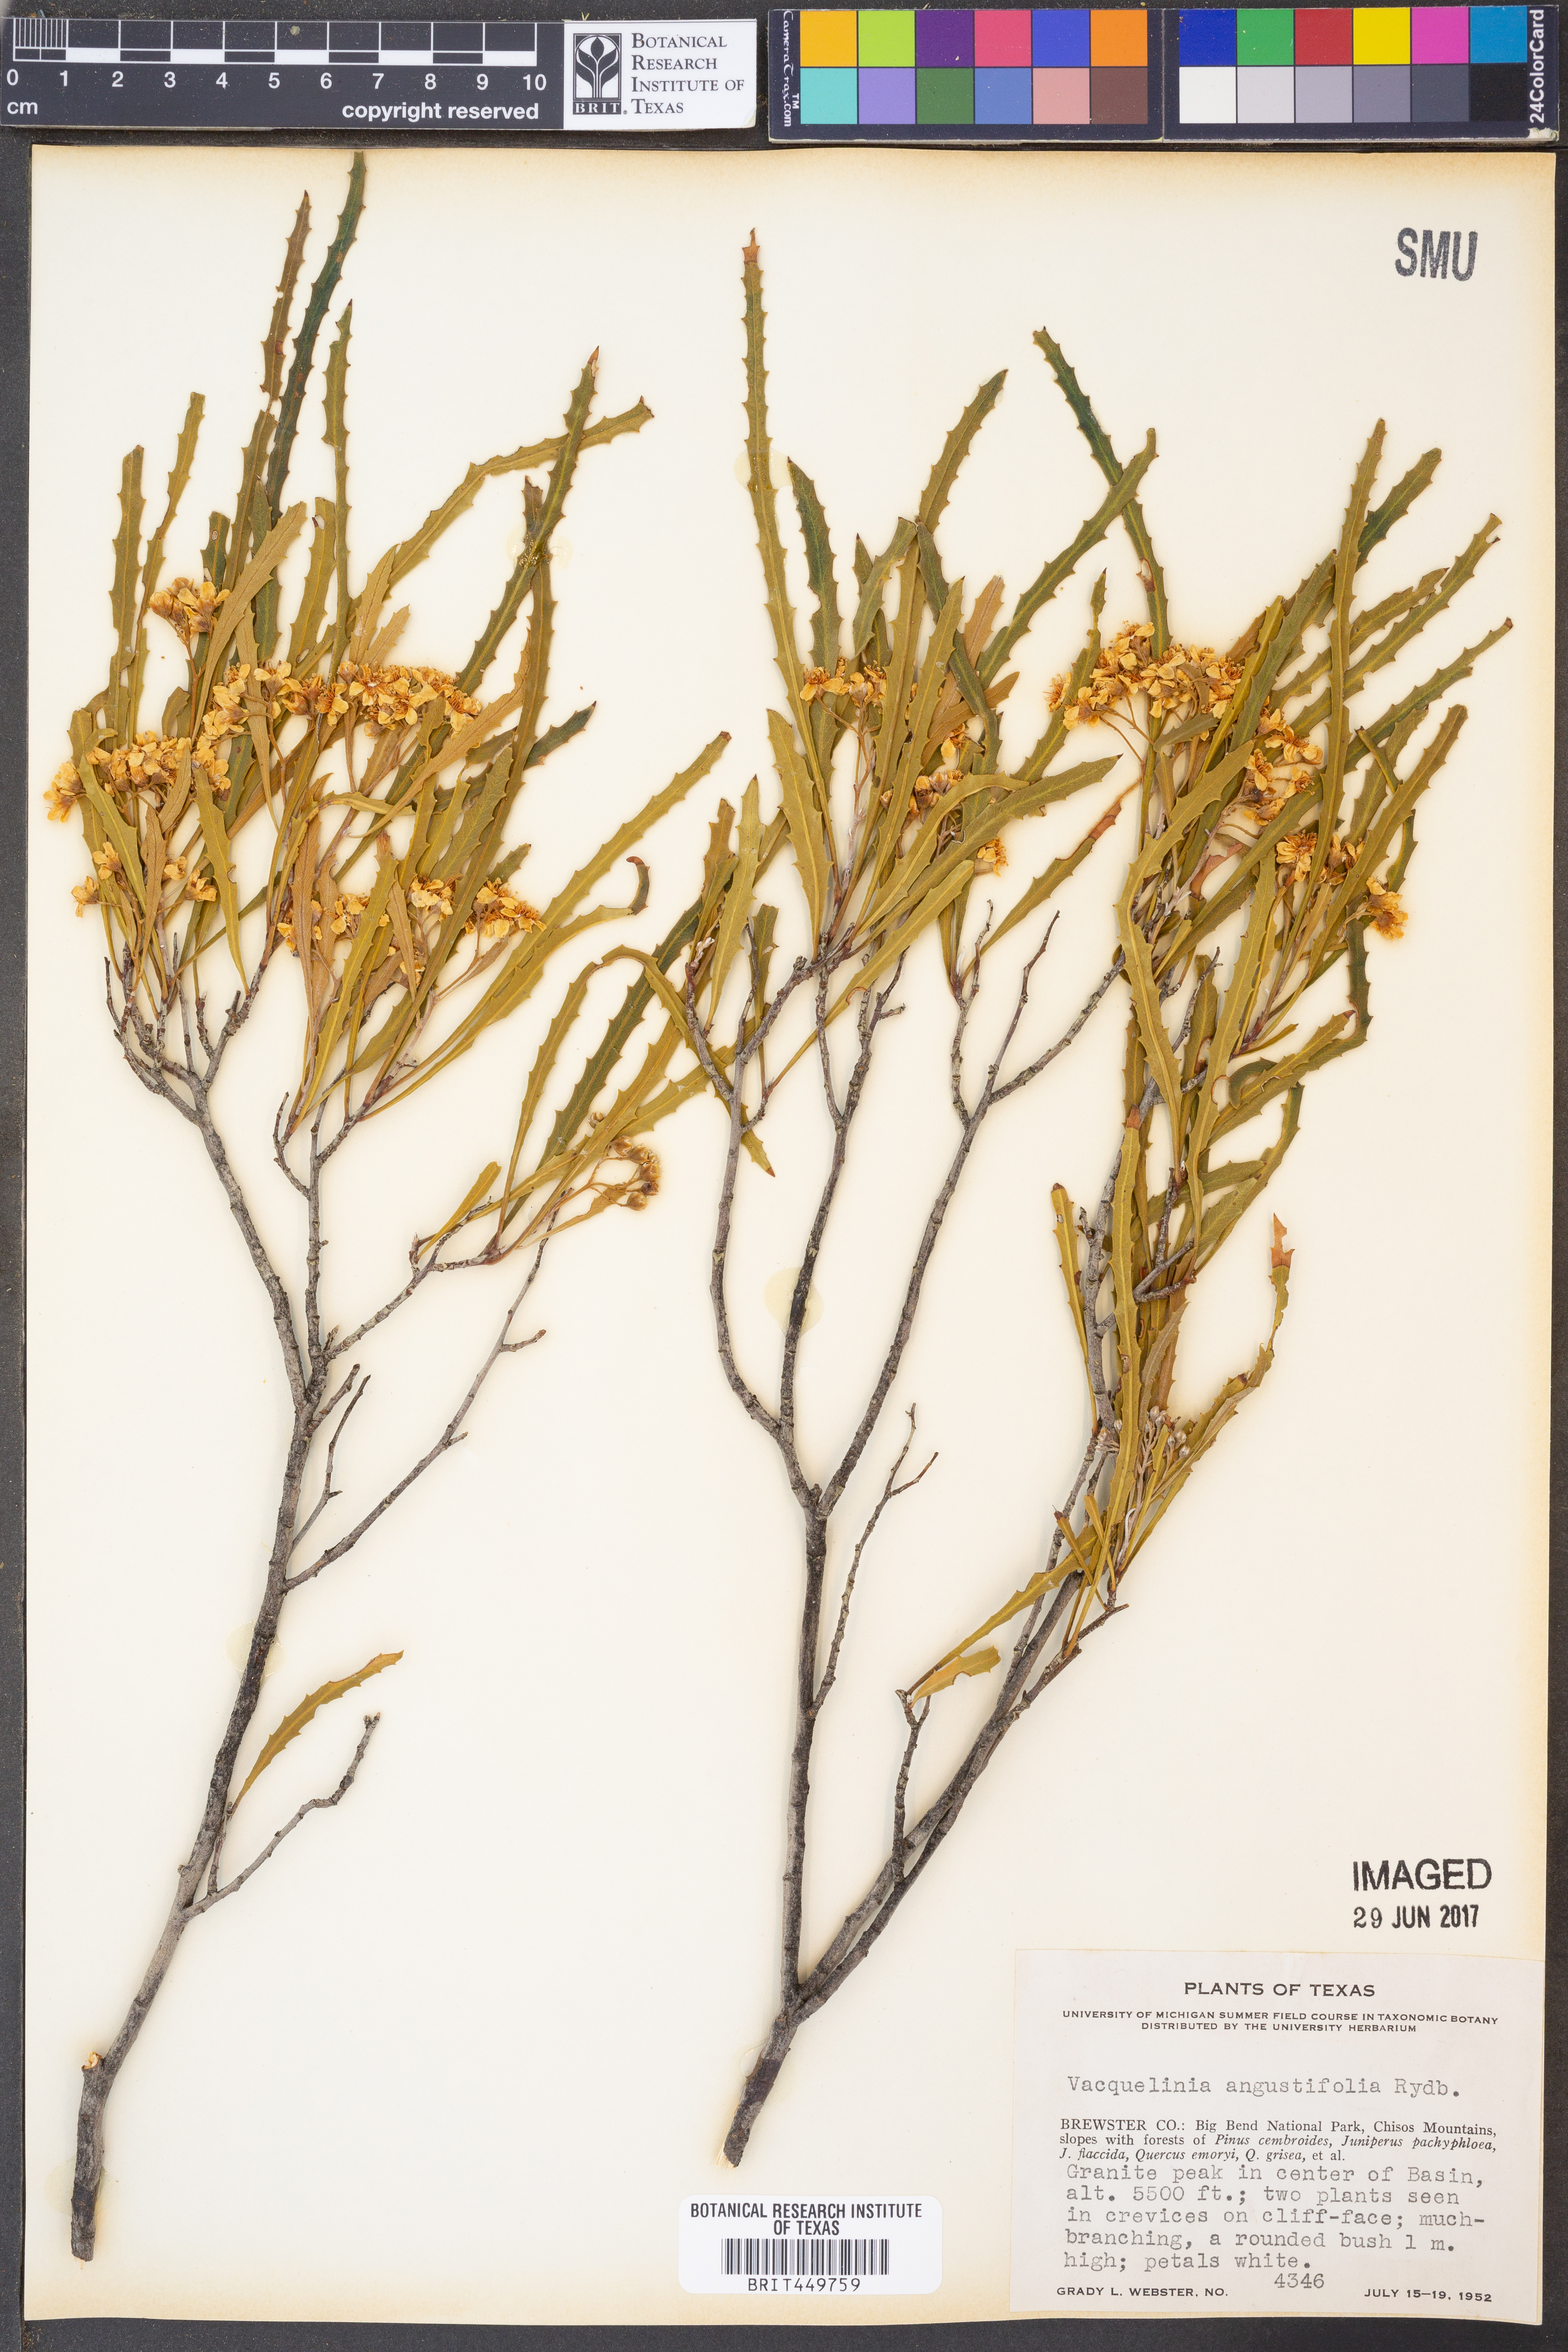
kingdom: Plantae
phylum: Tracheophyta
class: Magnoliopsida
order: Rosales
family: Rosaceae
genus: Vauquelinia
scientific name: Vauquelinia corymbosa
